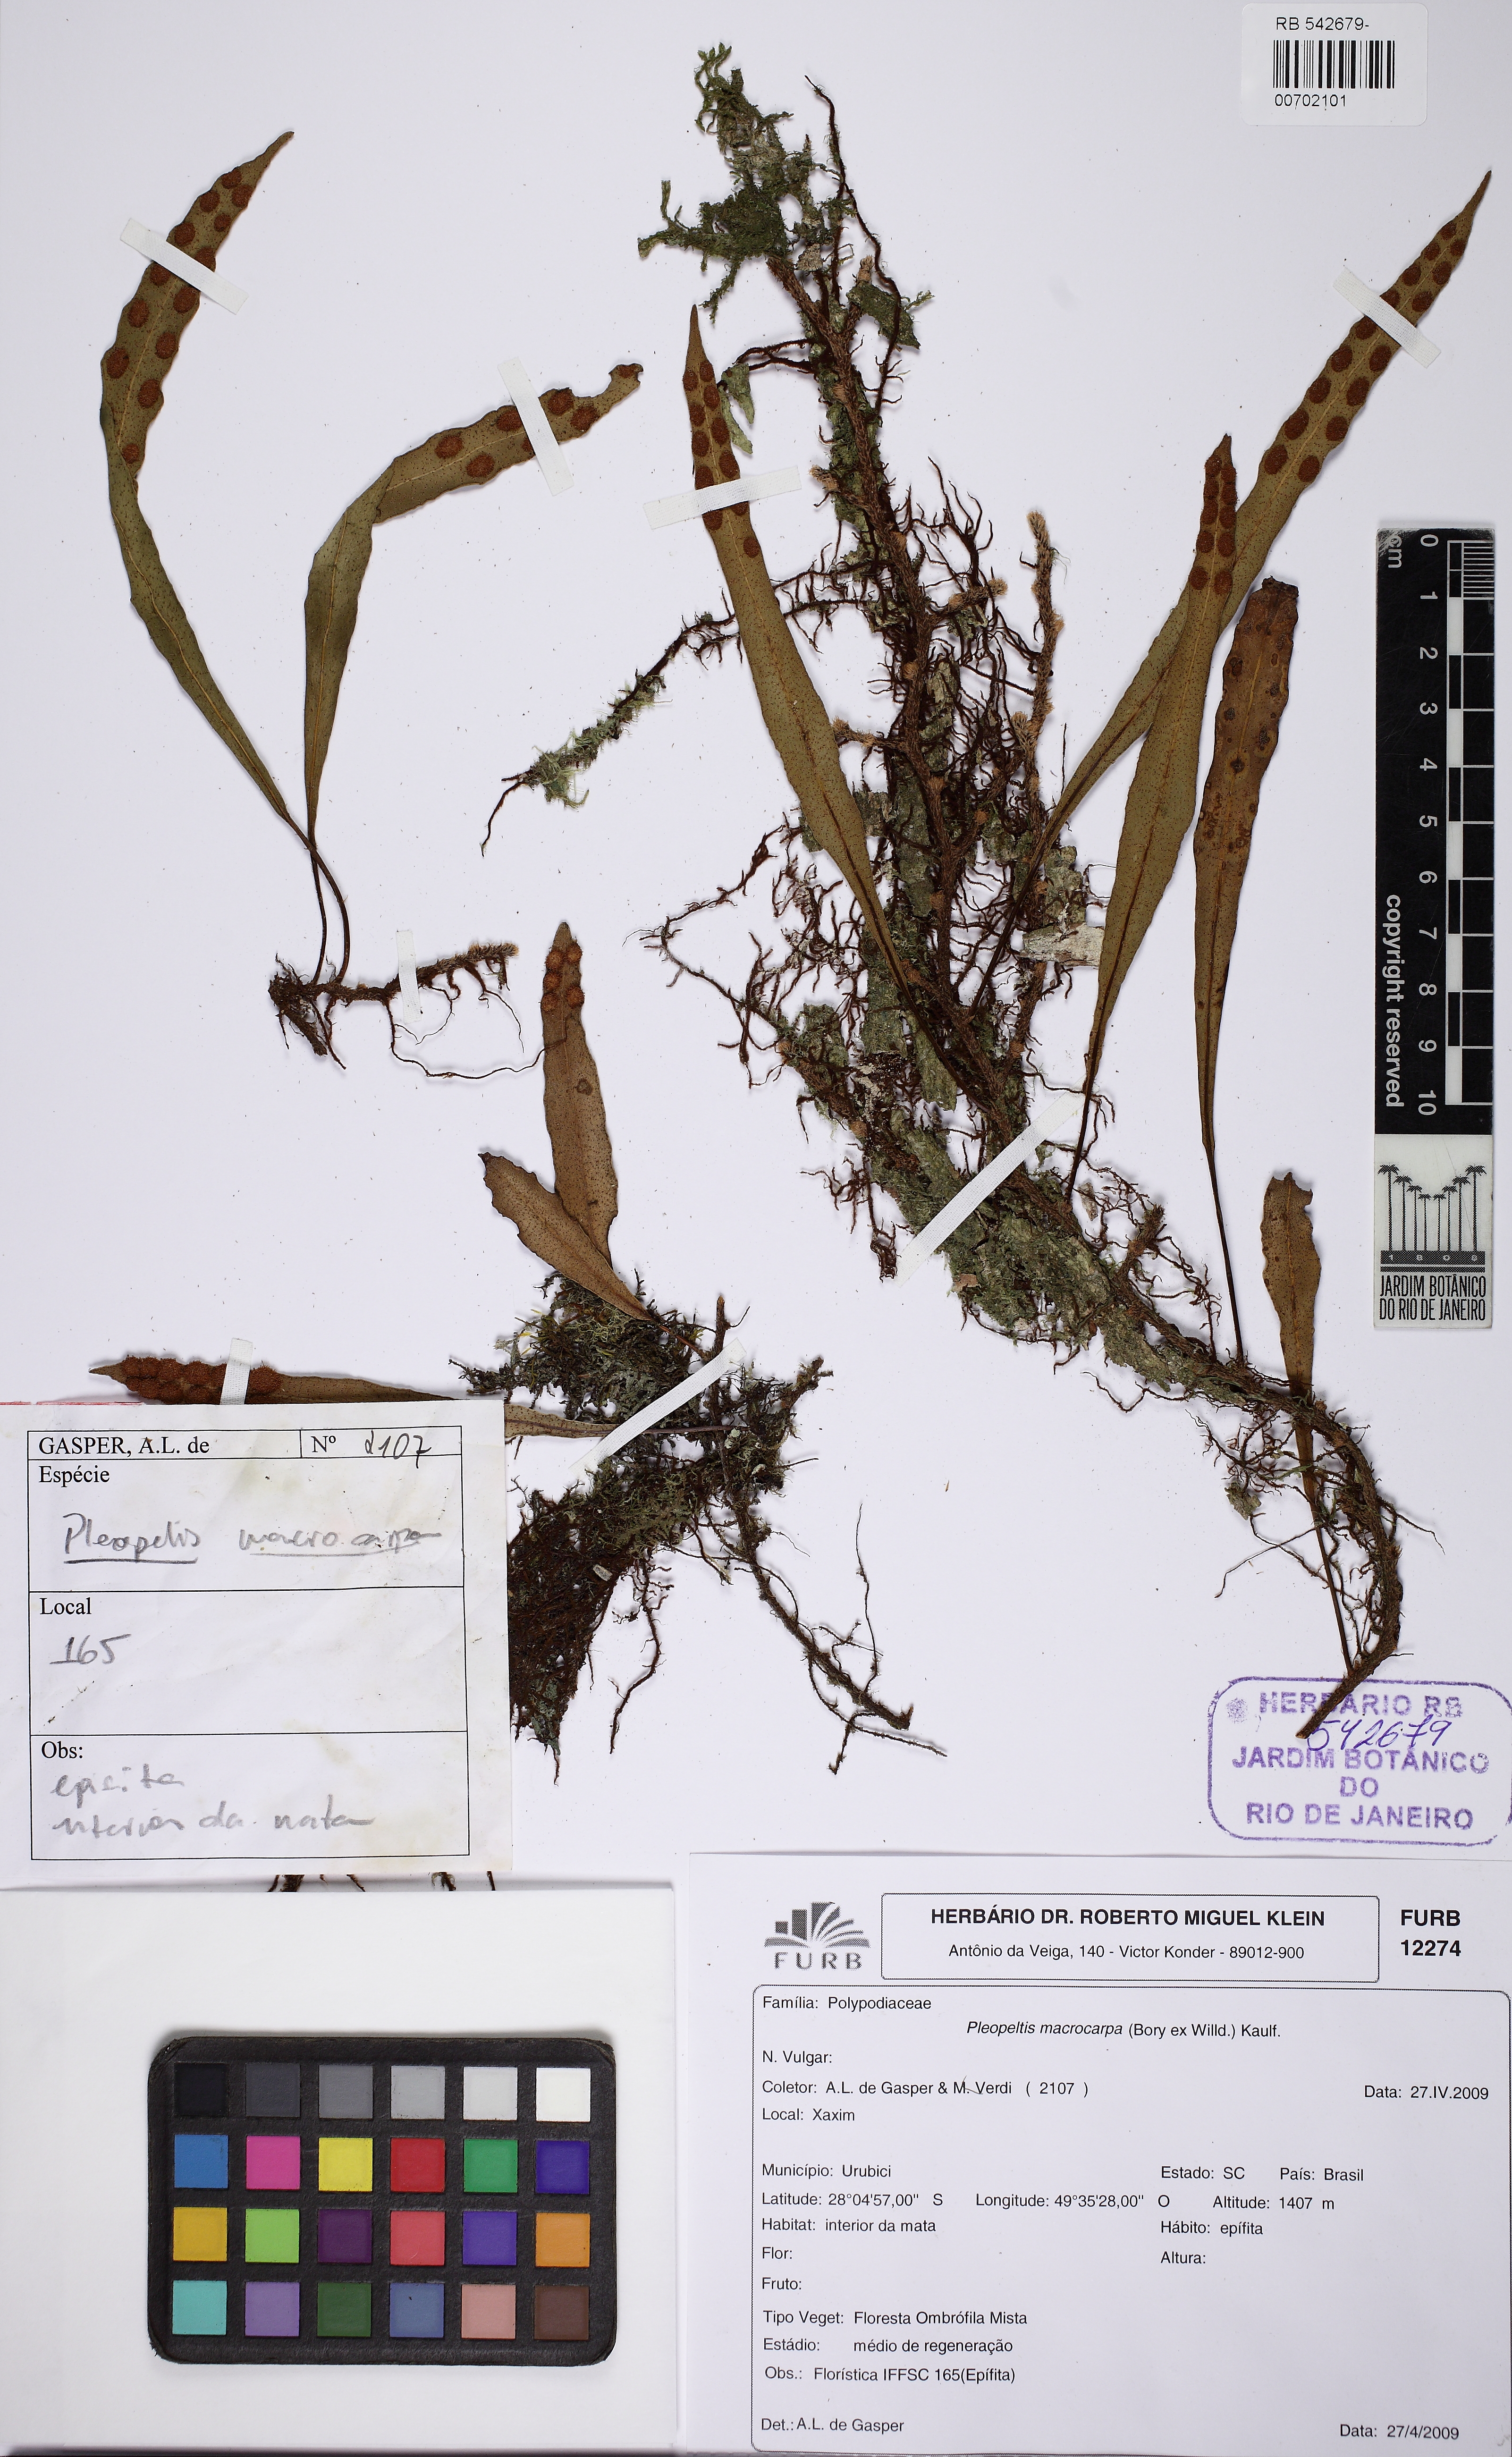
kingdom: Plantae
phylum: Tracheophyta
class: Polypodiopsida
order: Polypodiales
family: Polypodiaceae
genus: Pleopeltis
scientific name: Pleopeltis macrocarpa
